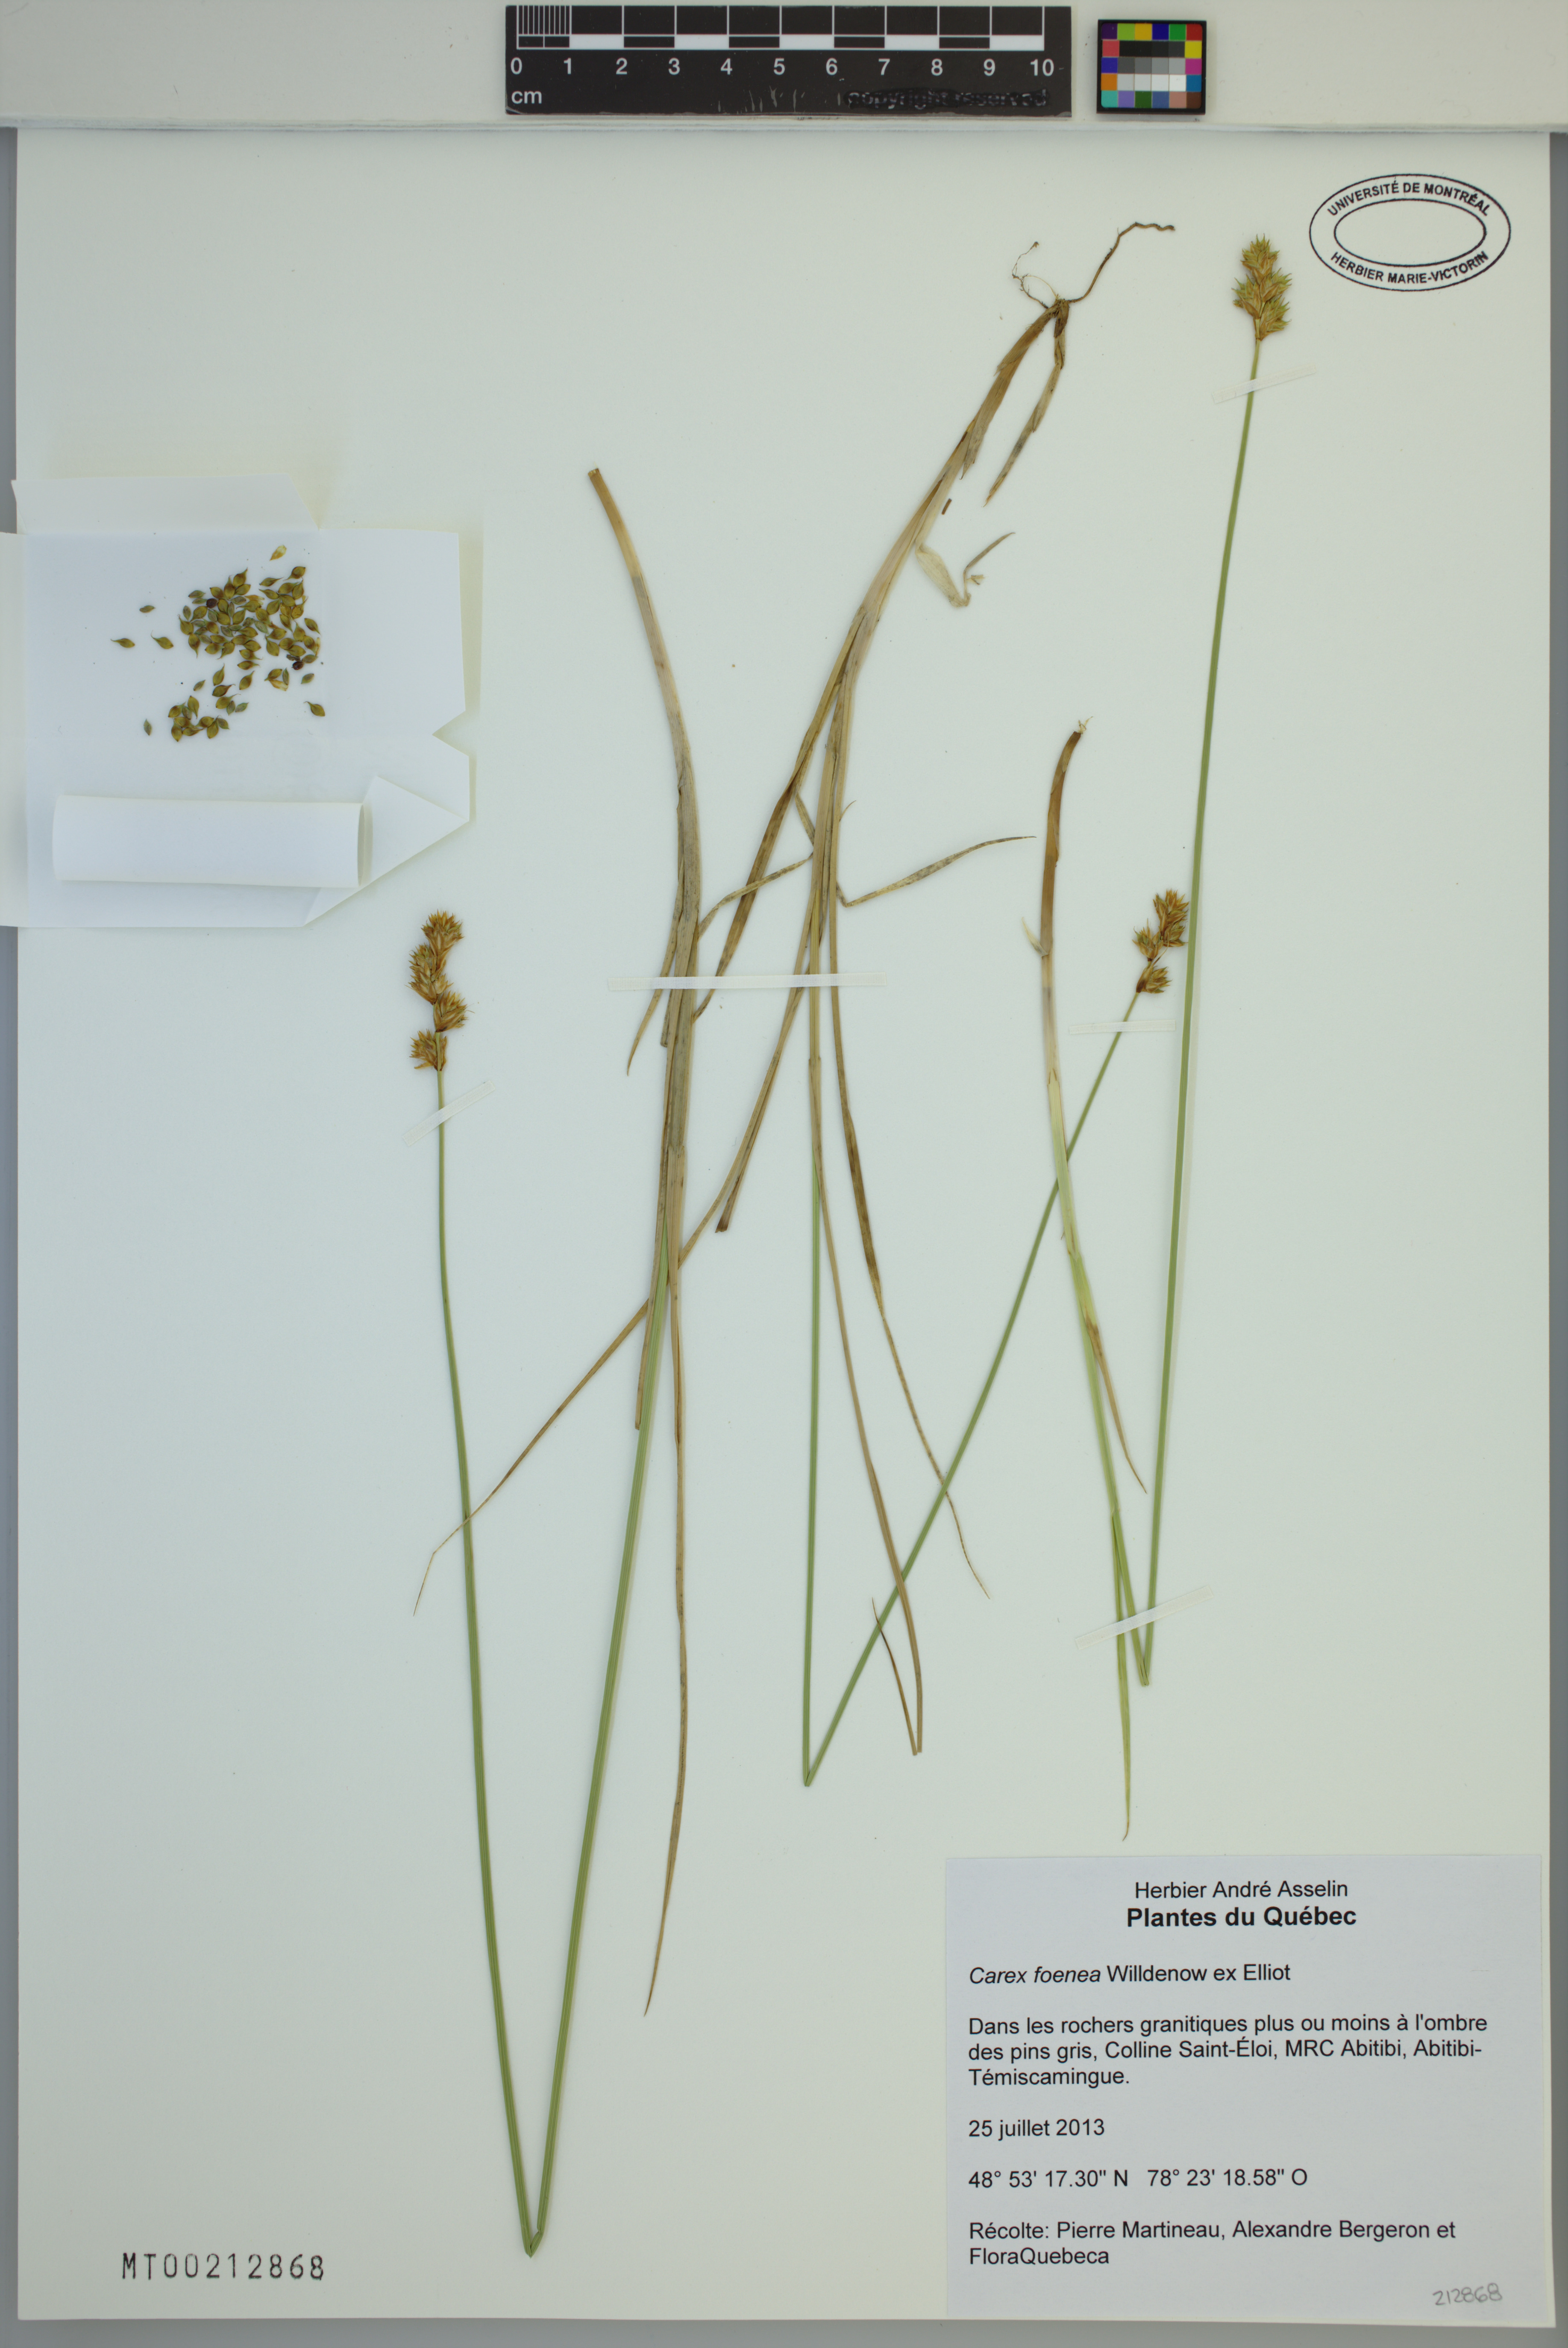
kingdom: Plantae
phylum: Tracheophyta
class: Liliopsida
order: Poales
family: Cyperaceae
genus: Carex
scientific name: Carex foenea
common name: Bronze sedge
